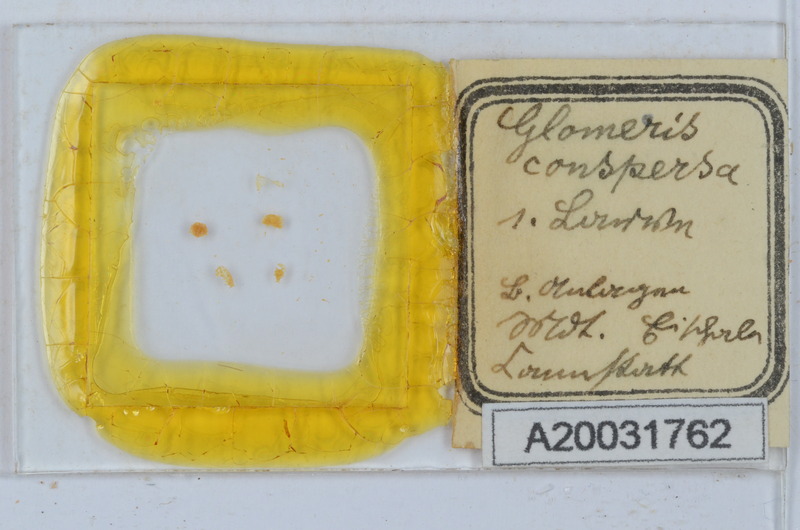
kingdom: Animalia
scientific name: Animalia
